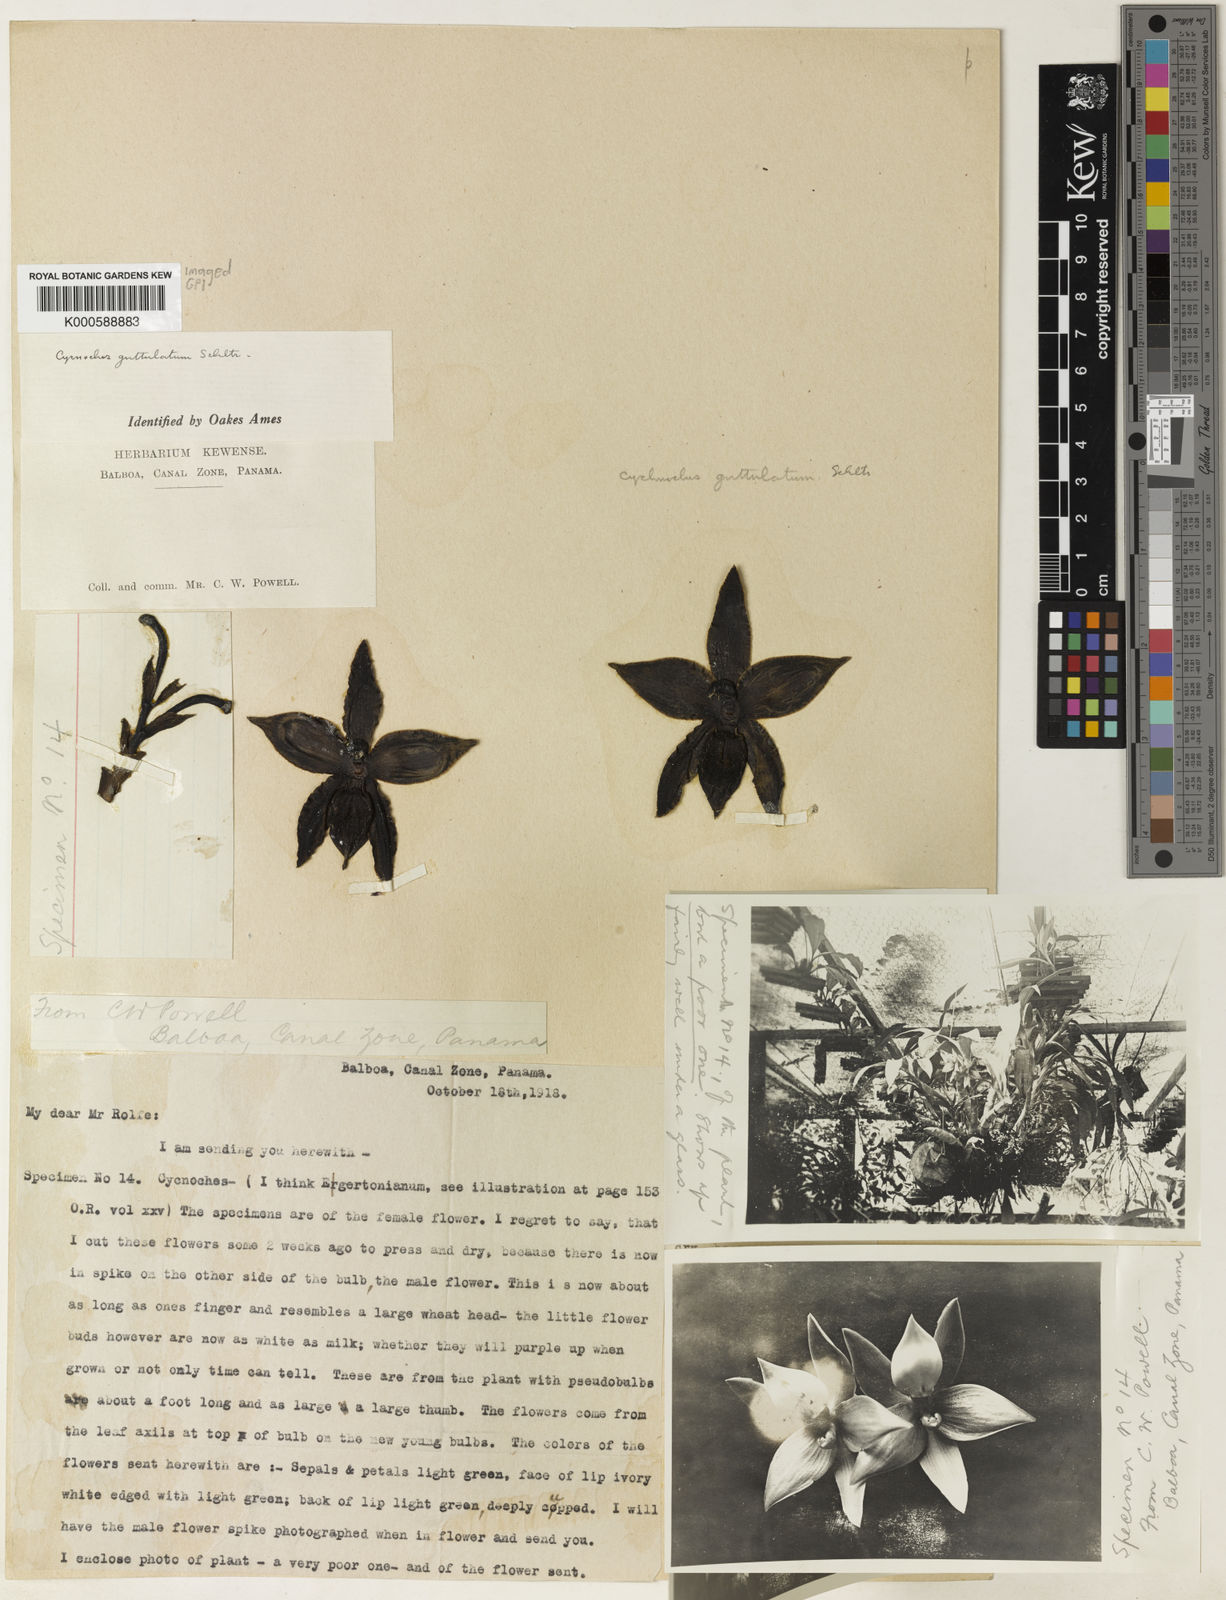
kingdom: Plantae
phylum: Tracheophyta
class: Liliopsida
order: Asparagales
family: Orchidaceae
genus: Cycnoches
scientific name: Cycnoches guttulatum
